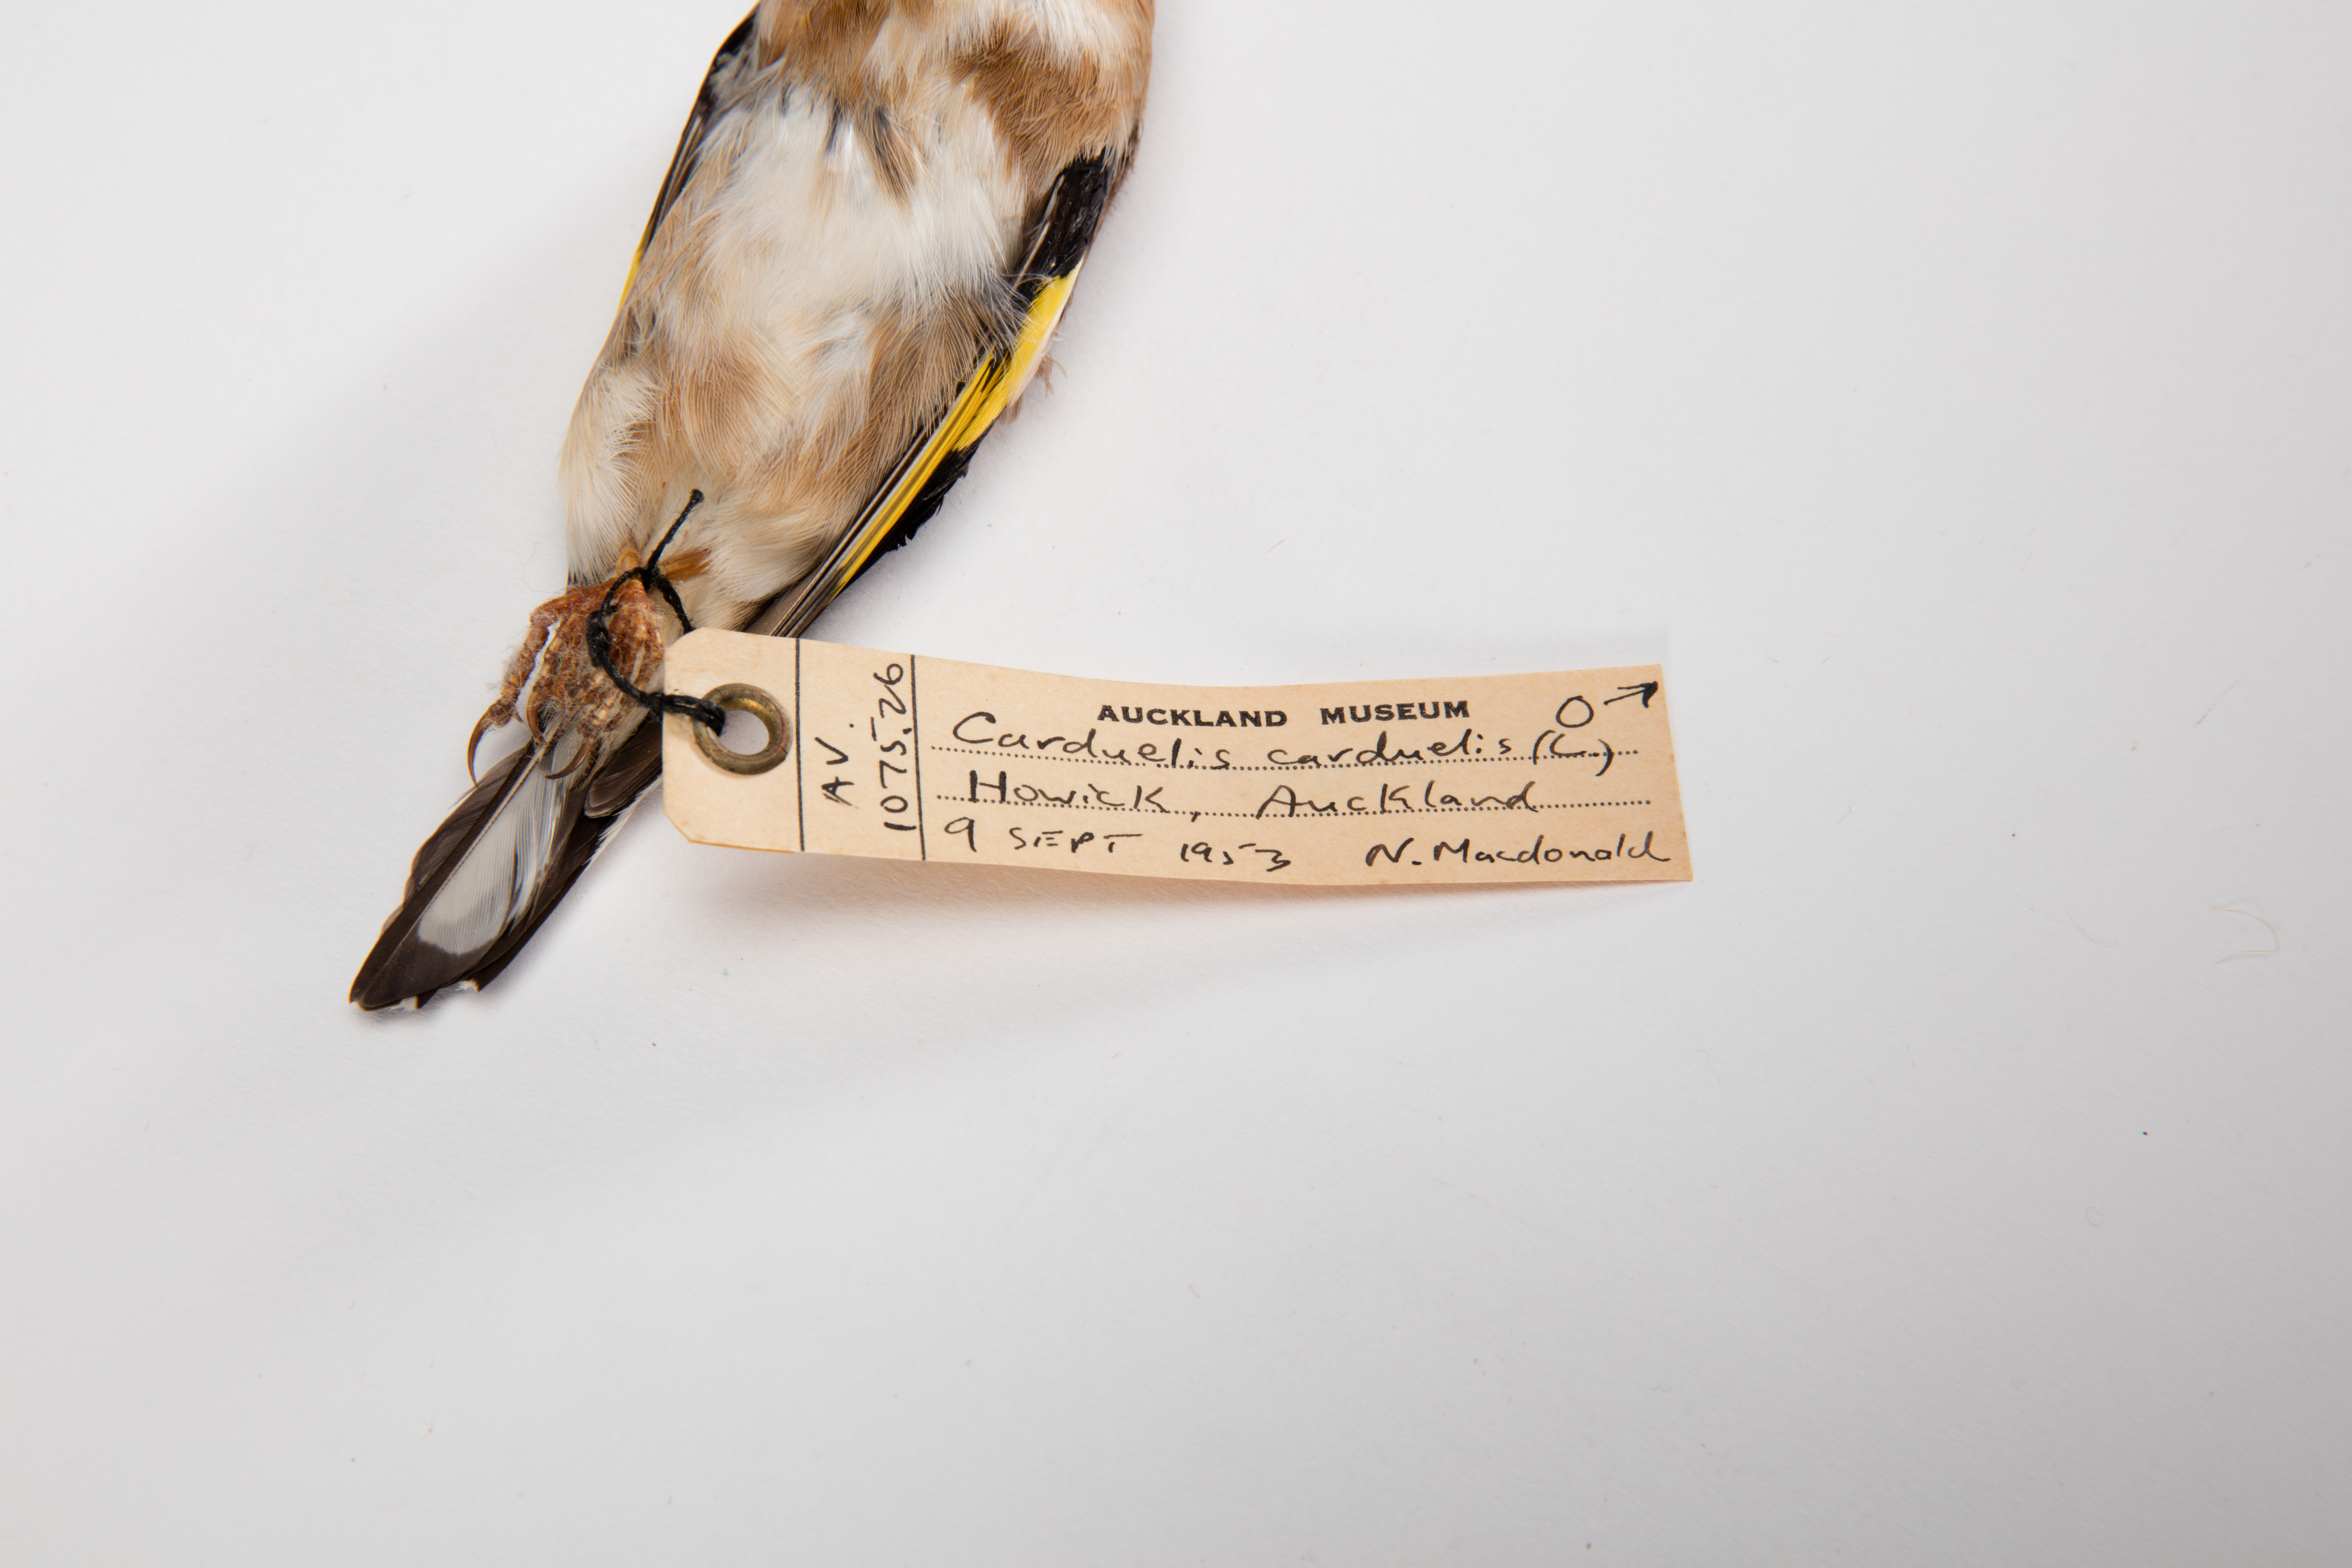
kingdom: Animalia
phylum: Chordata
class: Aves
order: Passeriformes
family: Fringillidae
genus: Carduelis
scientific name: Carduelis carduelis
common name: European goldfinch
